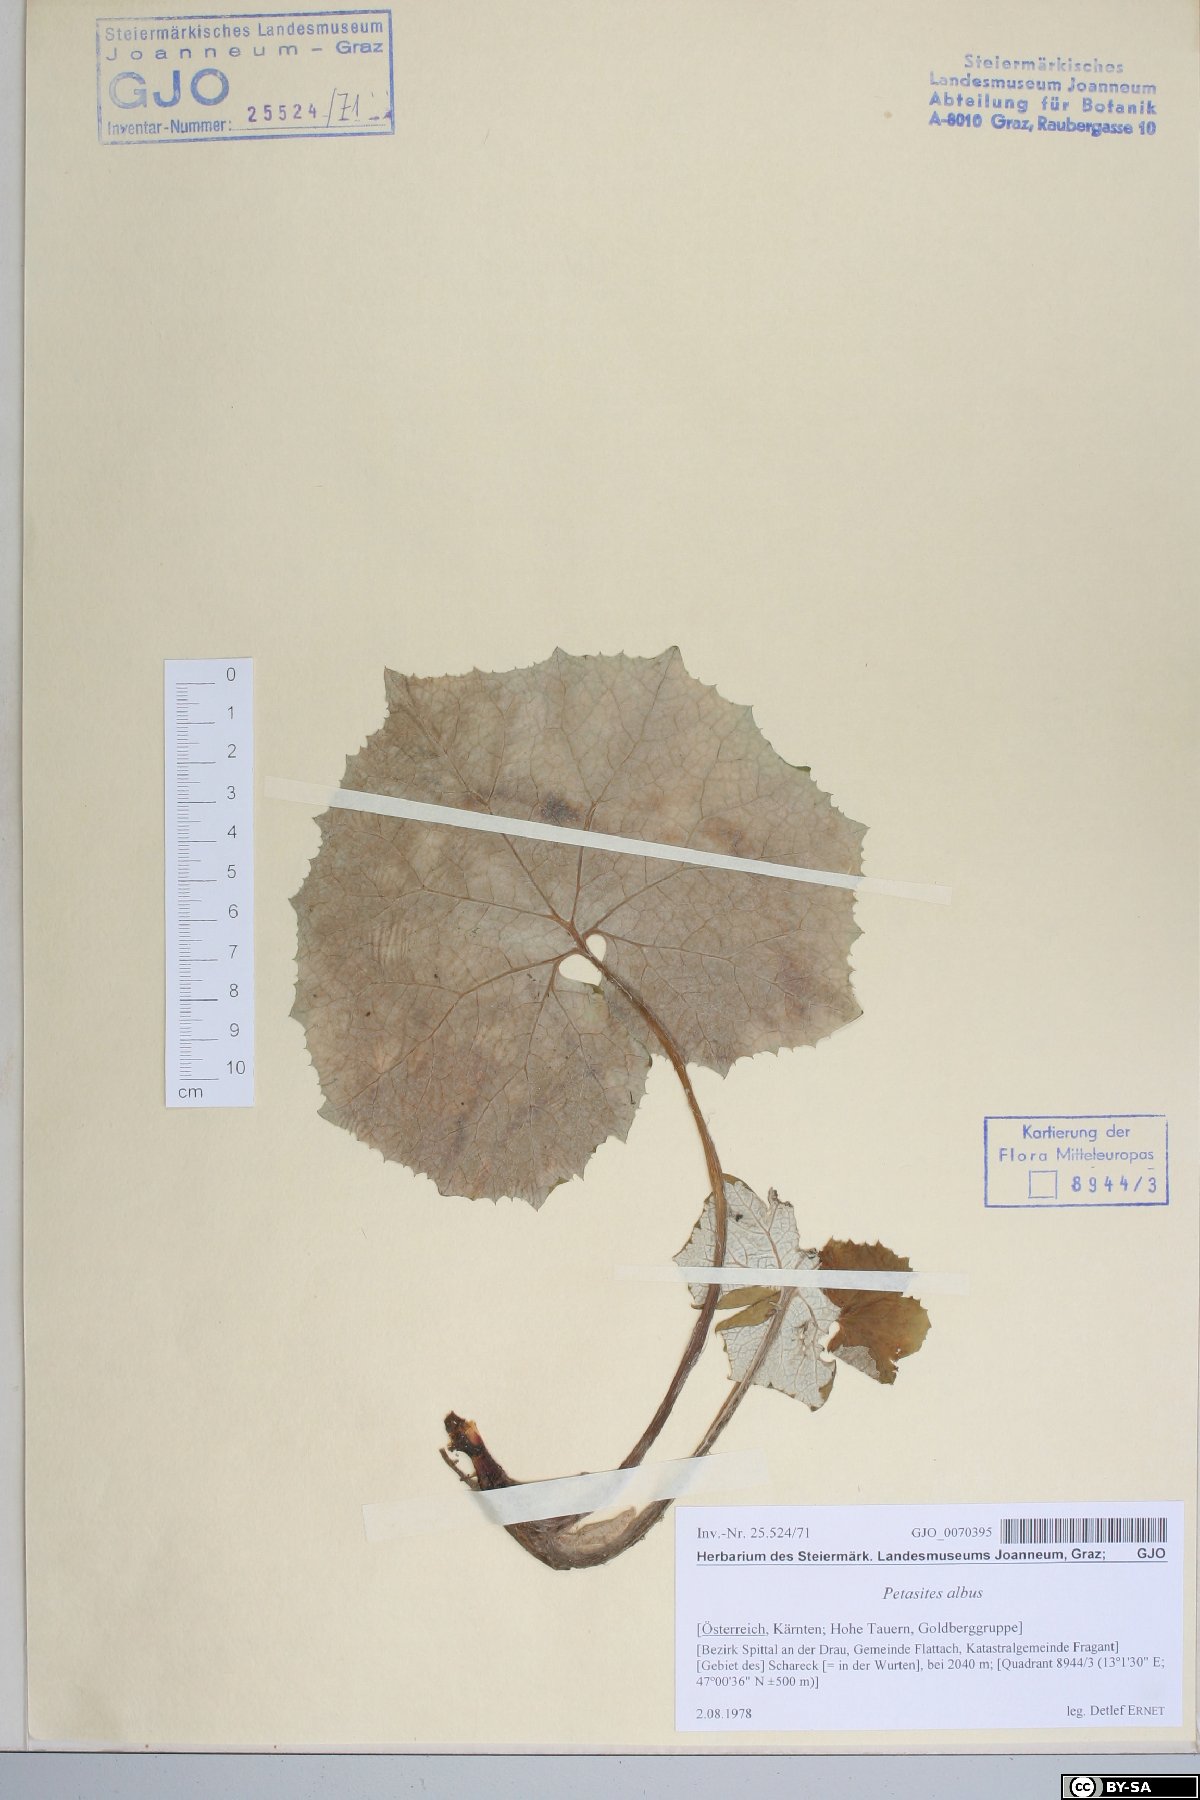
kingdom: Plantae
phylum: Tracheophyta
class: Magnoliopsida
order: Asterales
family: Asteraceae
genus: Petasites
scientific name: Petasites albus
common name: White butterbur
